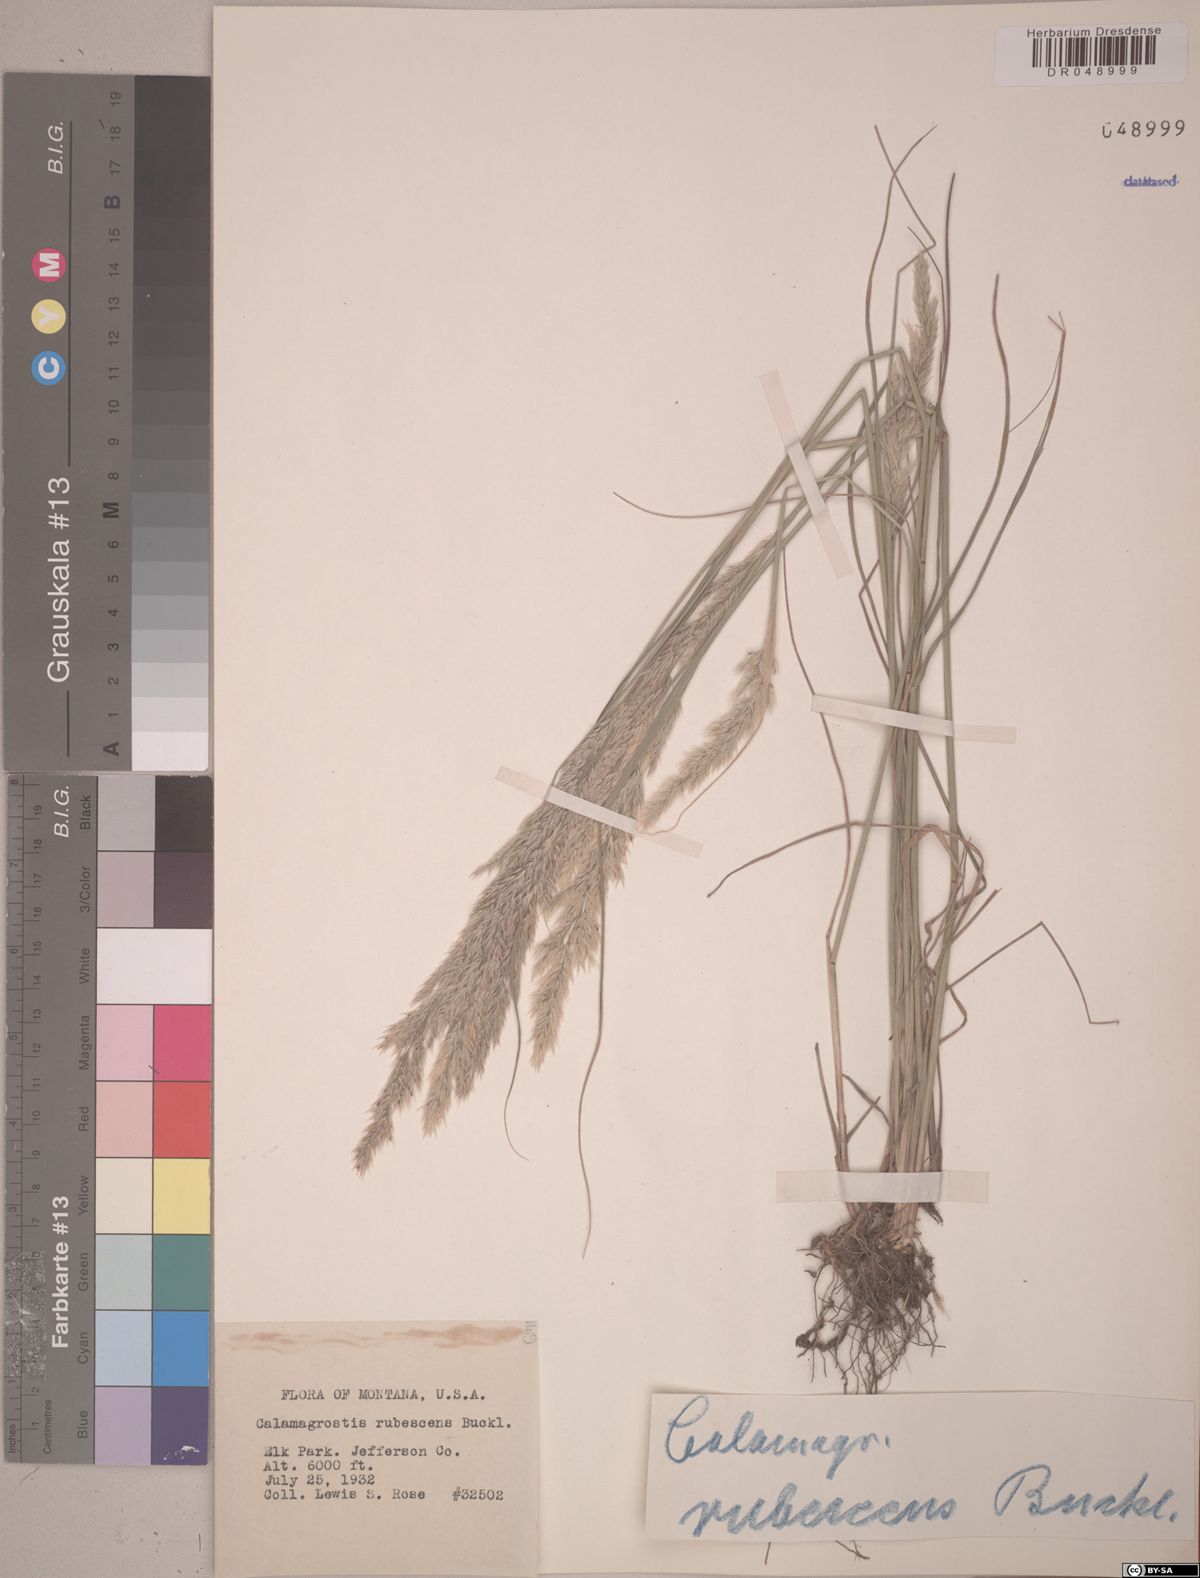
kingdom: Plantae
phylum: Tracheophyta
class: Liliopsida
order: Poales
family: Poaceae
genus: Calamagrostis
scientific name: Calamagrostis rubescens
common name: Pine grass
